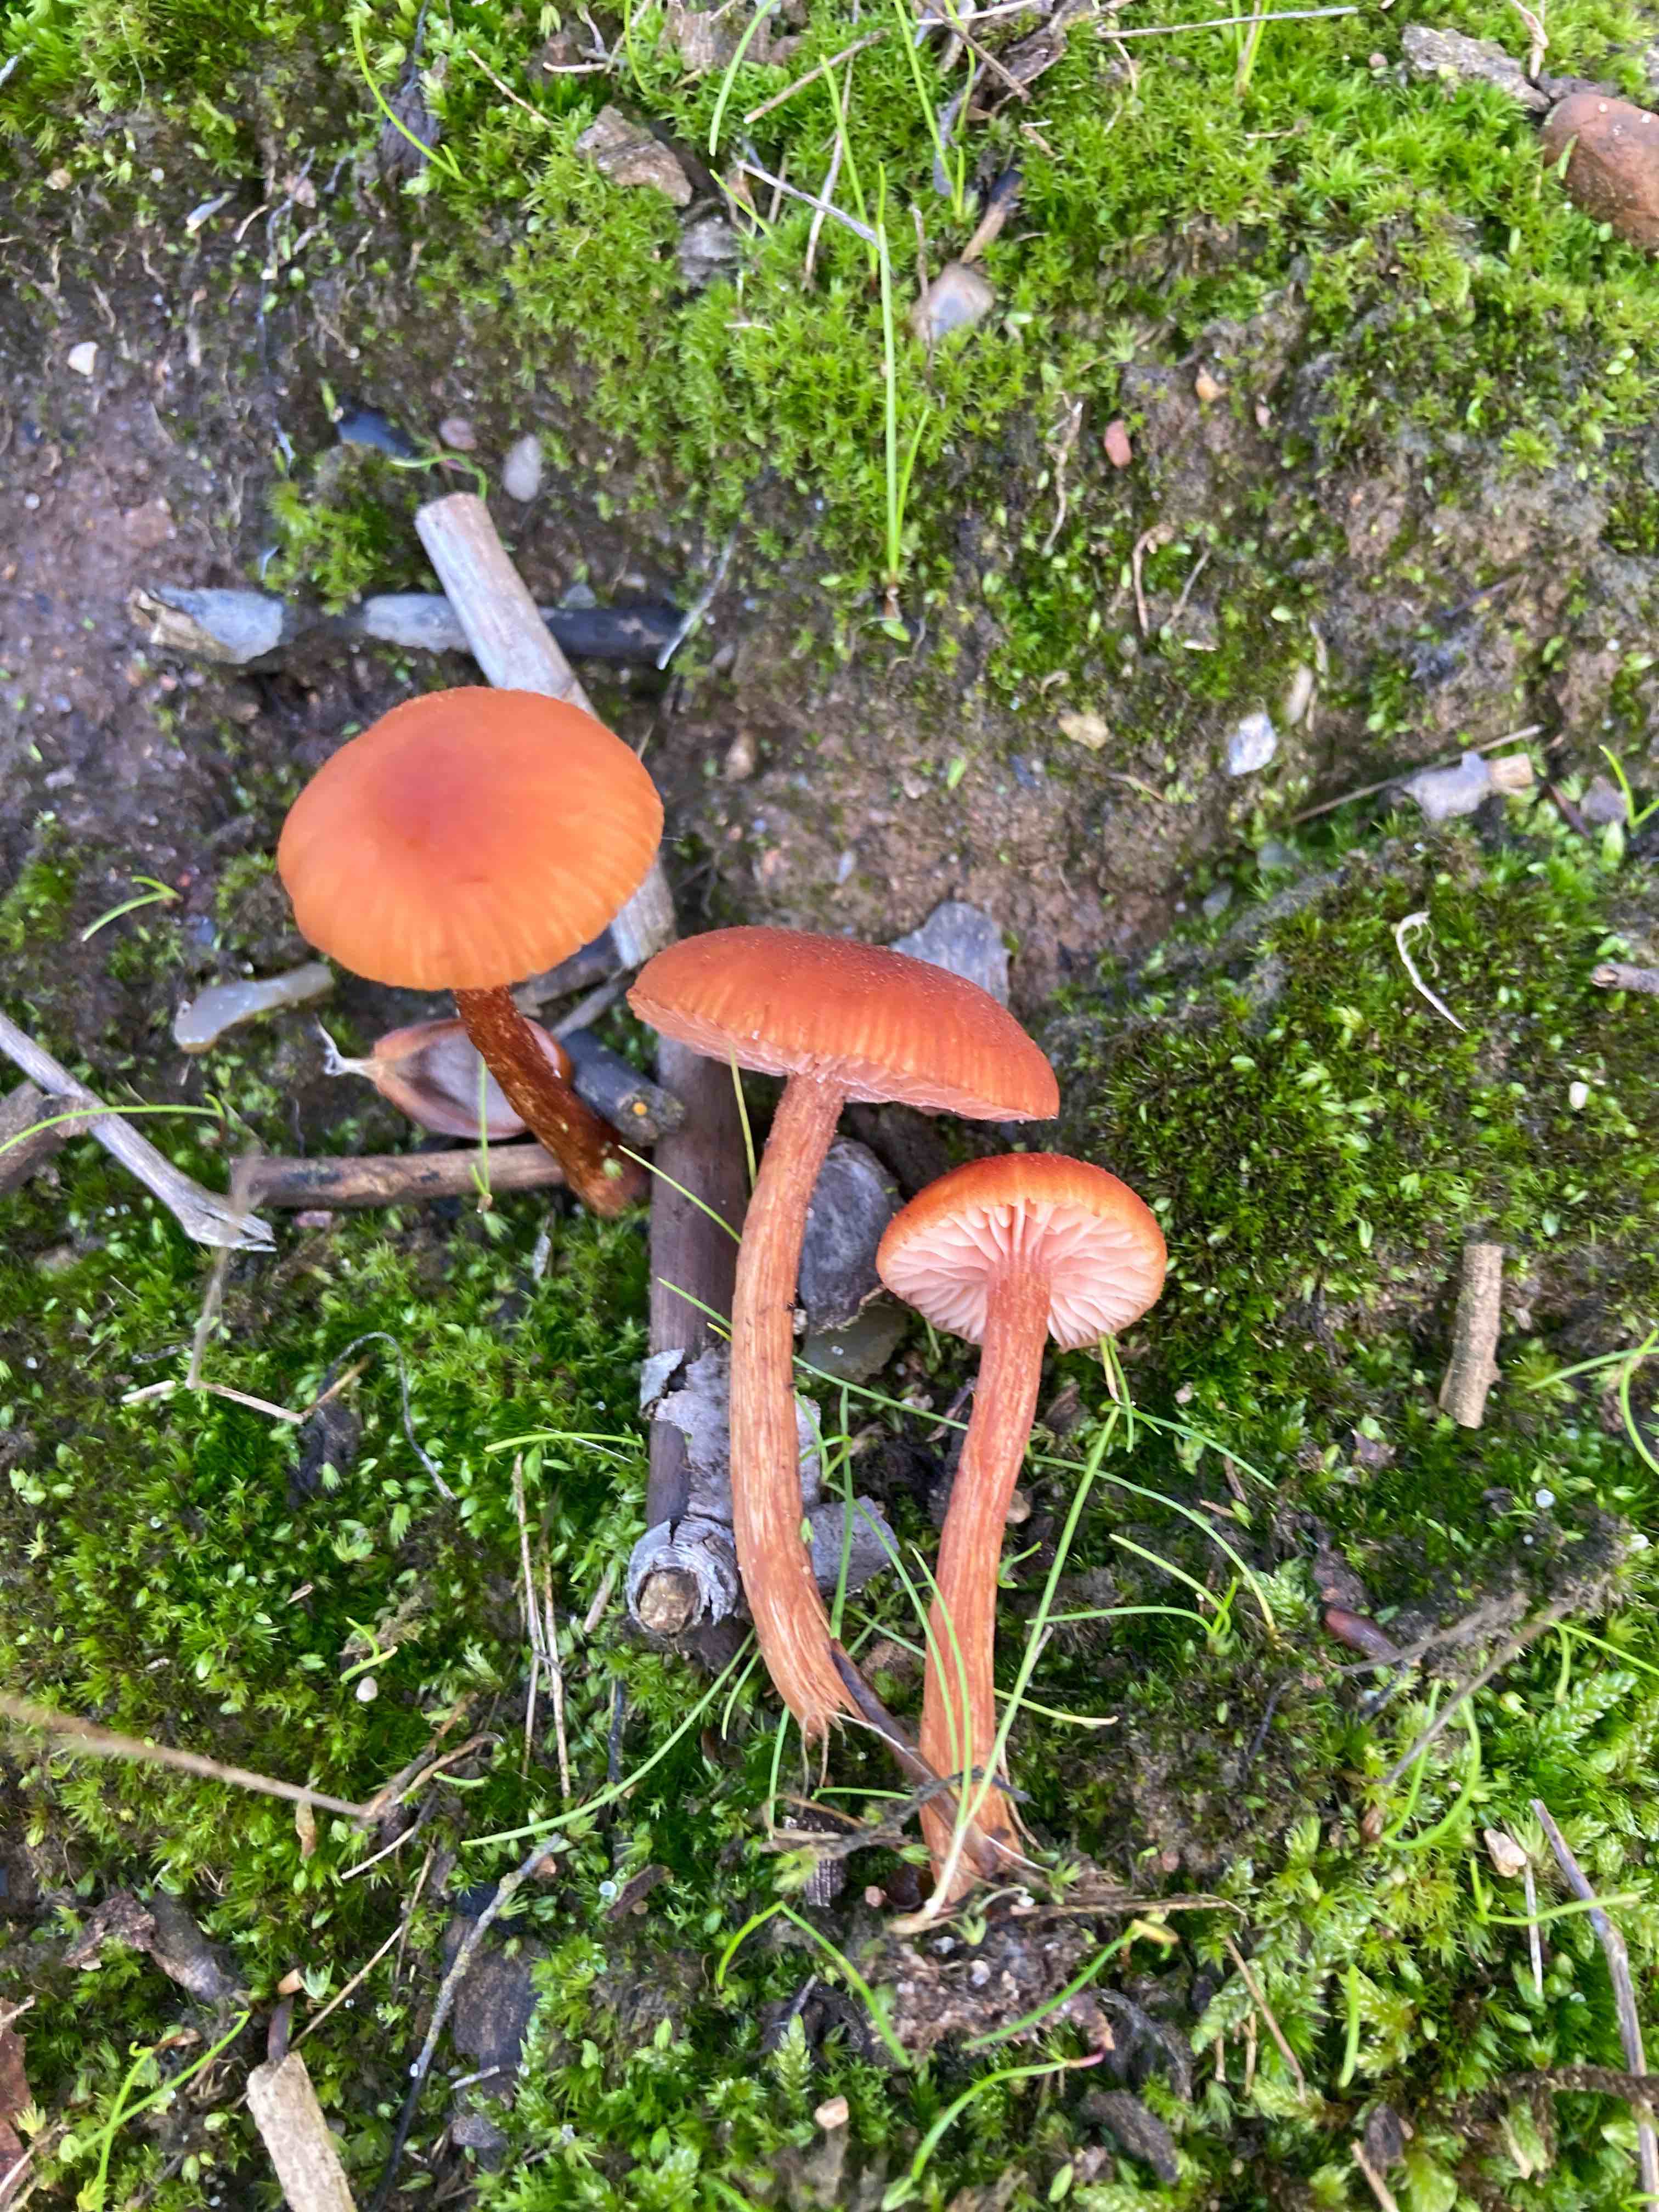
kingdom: Fungi
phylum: Basidiomycota
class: Agaricomycetes
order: Agaricales
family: Hydnangiaceae
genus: Laccaria
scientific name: Laccaria proxima
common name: stor ametysthat
